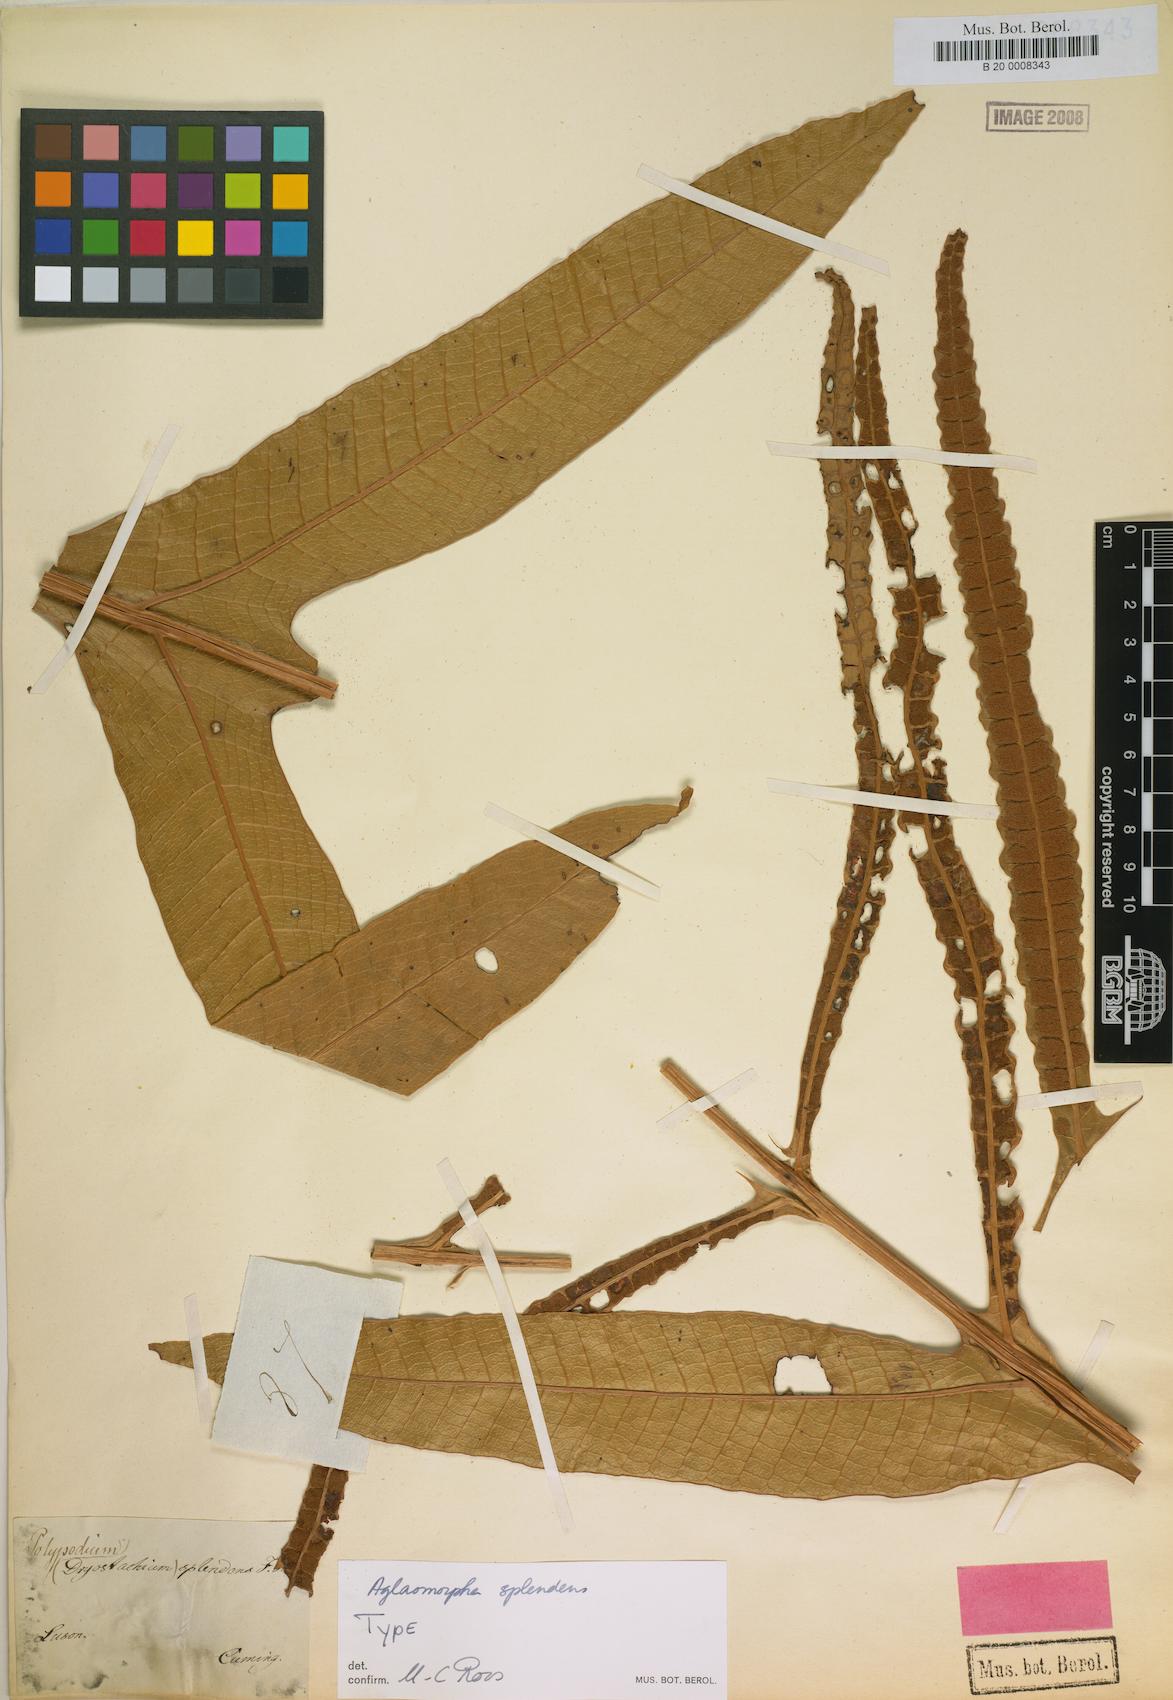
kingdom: Plantae
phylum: Tracheophyta
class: Polypodiopsida
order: Polypodiales
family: Polypodiaceae
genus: Drynaria
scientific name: Drynaria splendens
